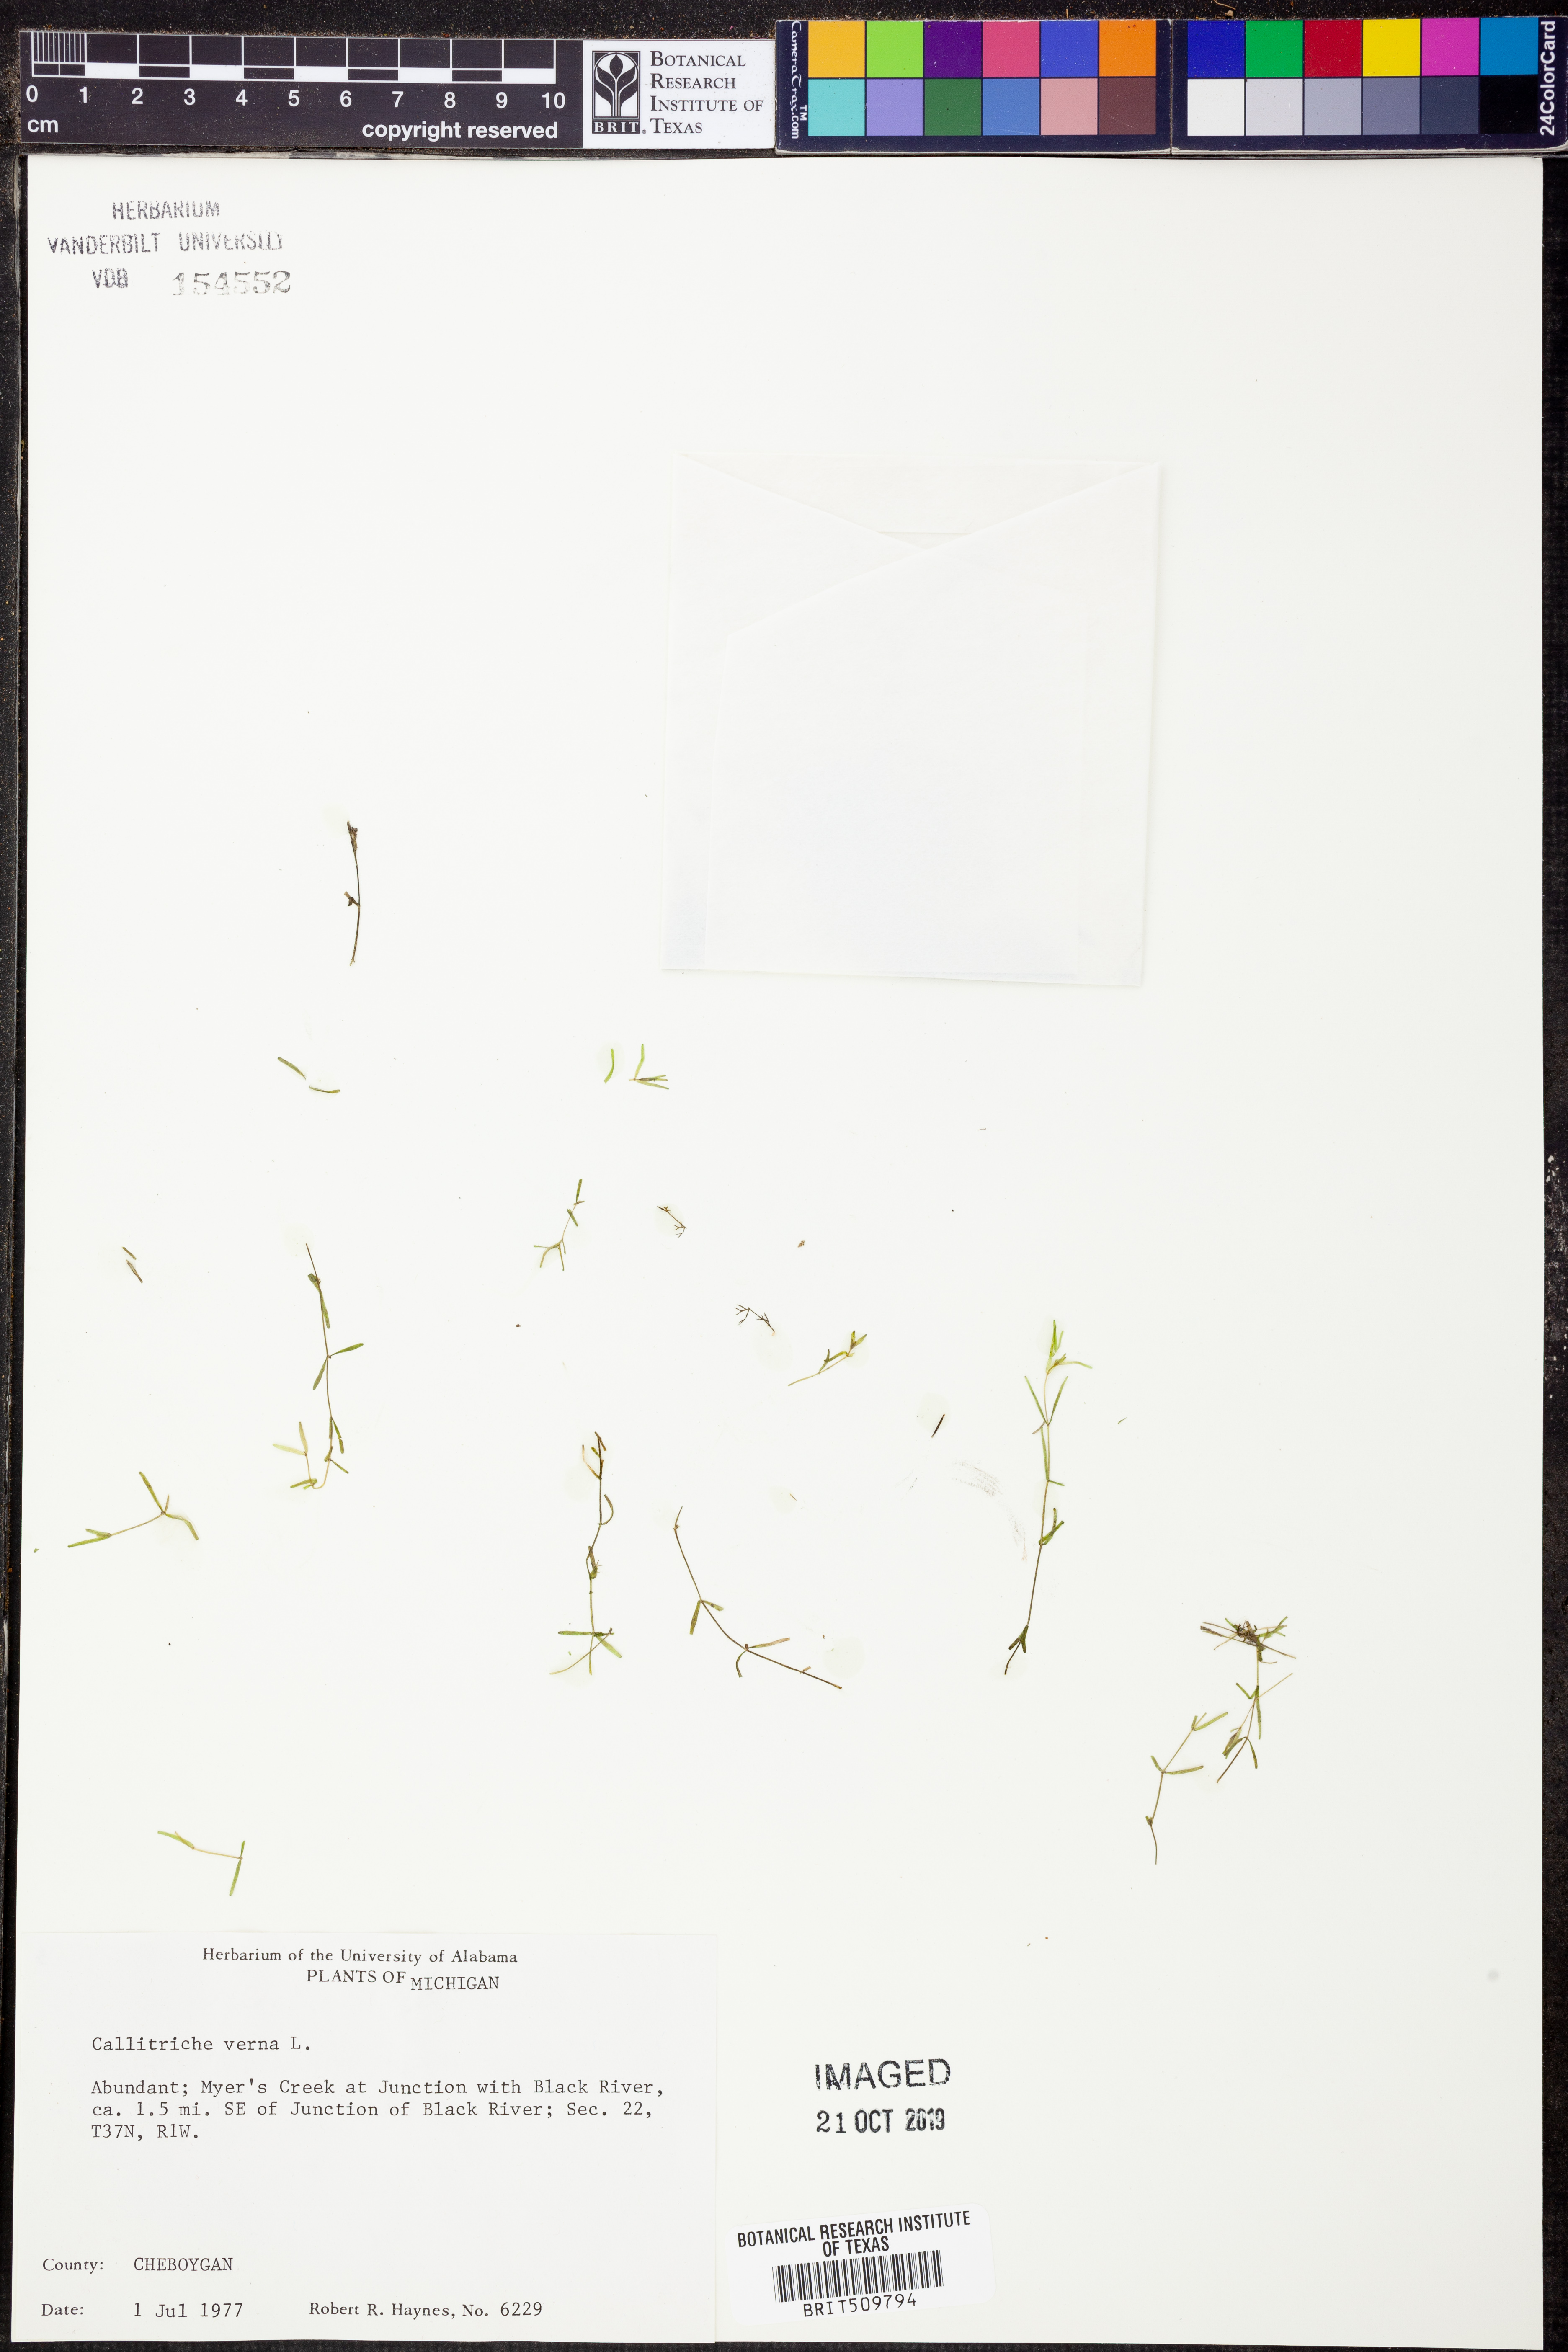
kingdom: Plantae
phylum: Tracheophyta
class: Magnoliopsida
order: Lamiales
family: Plantaginaceae
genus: Callitriche
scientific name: Callitriche palustris
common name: Spring water-starwort
